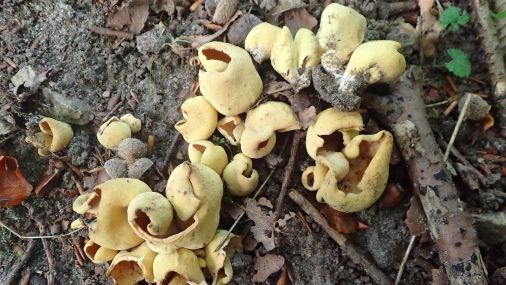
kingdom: Fungi
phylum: Ascomycota
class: Pezizomycetes
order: Pezizales
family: Otideaceae
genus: Otidea
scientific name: Otidea cantharella
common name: citrongul ørebæger
